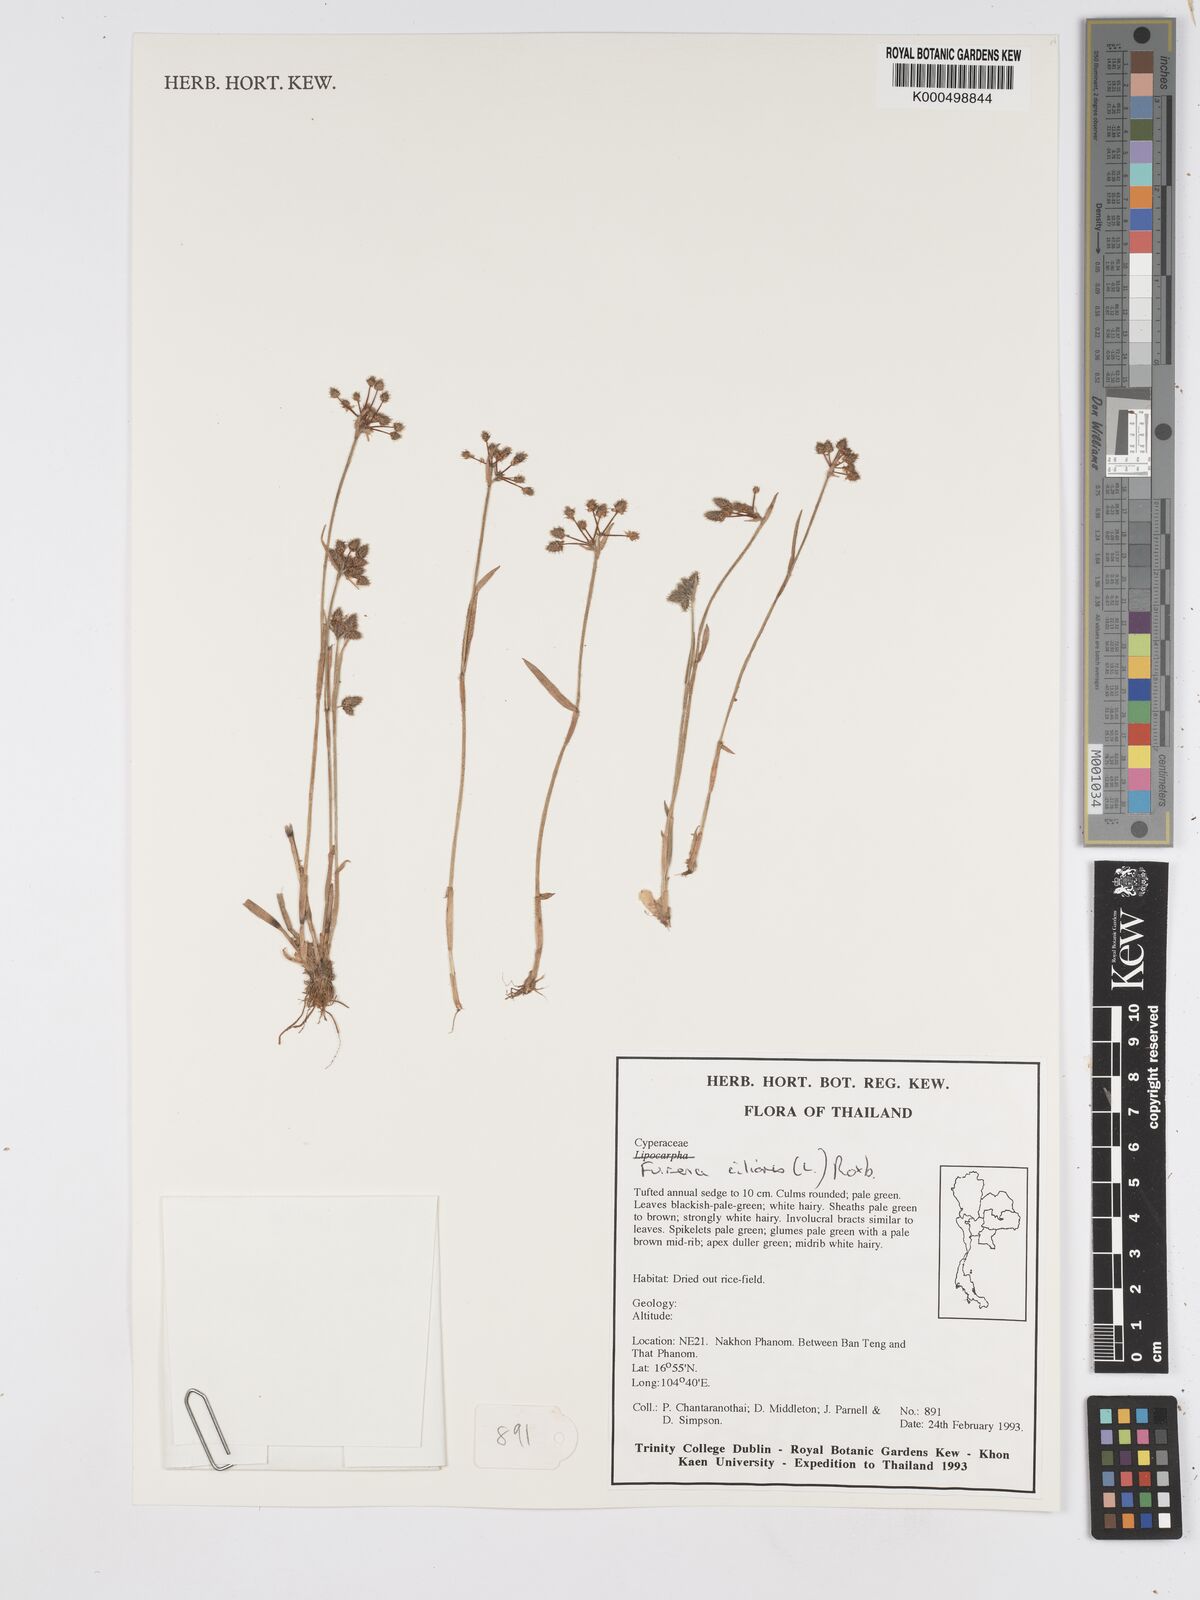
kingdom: Plantae
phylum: Tracheophyta
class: Liliopsida
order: Poales
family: Cyperaceae
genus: Fuirena
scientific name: Fuirena ciliaris
